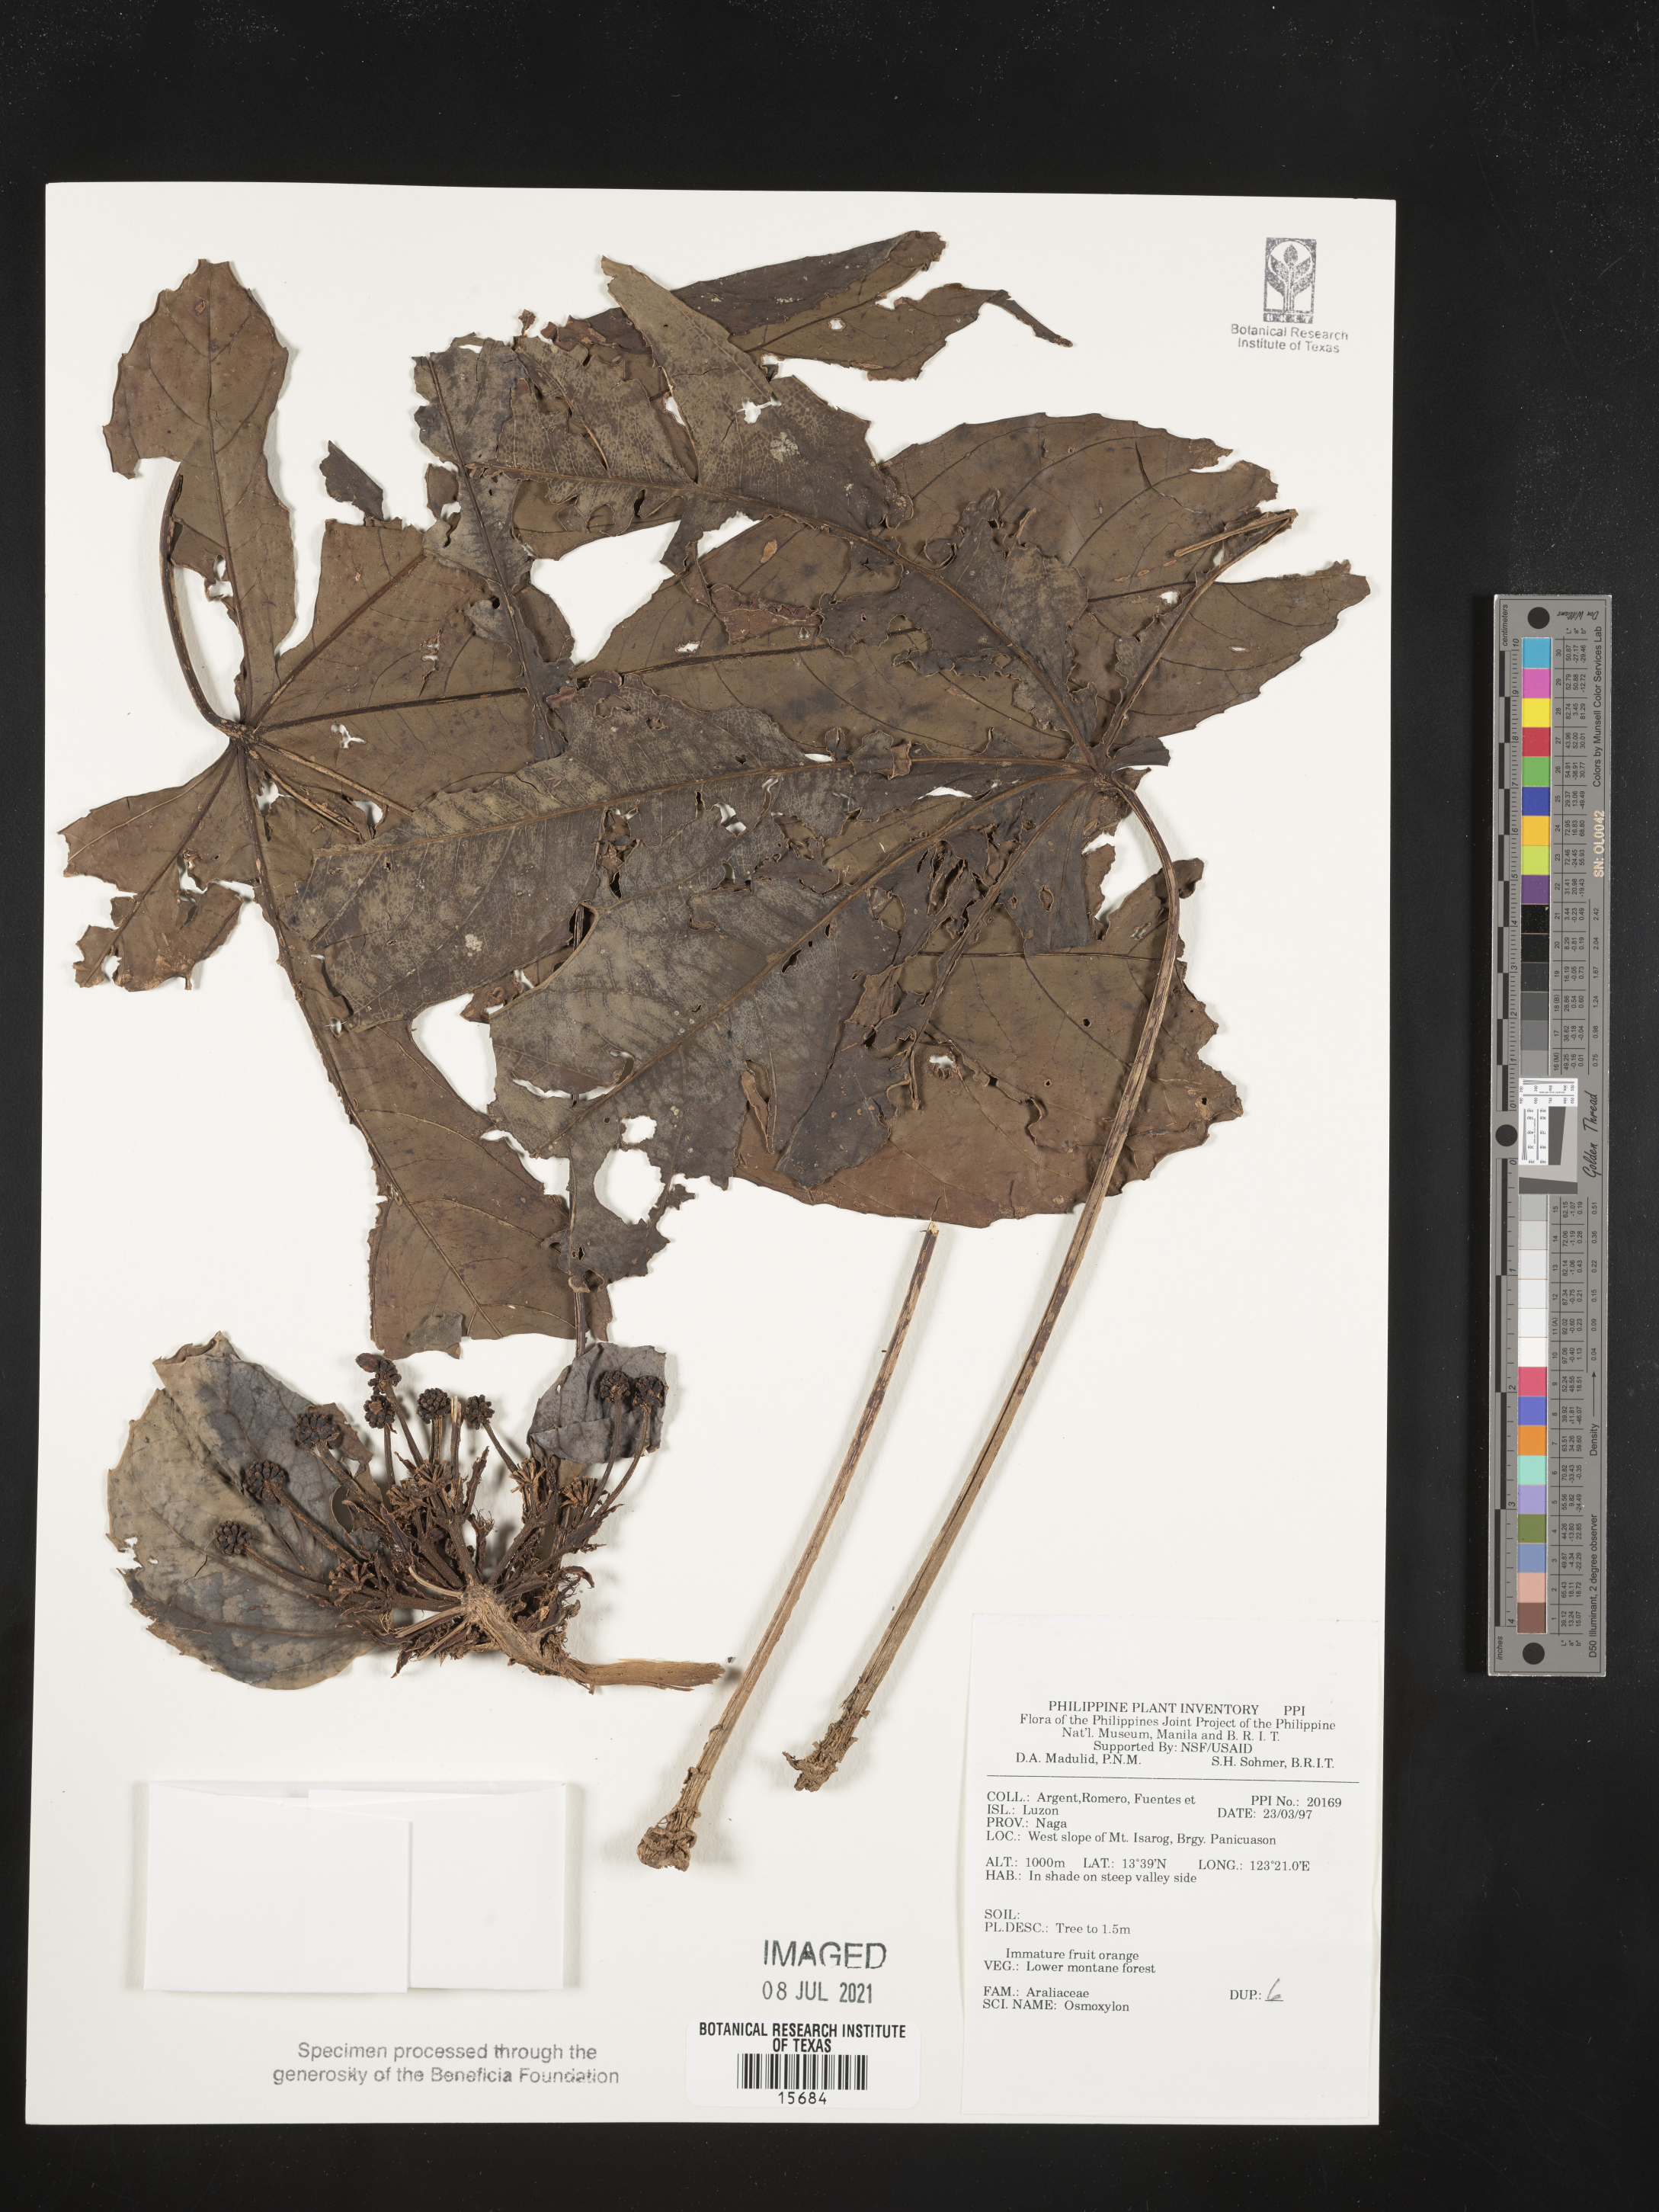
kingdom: Plantae
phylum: Tracheophyta
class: Magnoliopsida
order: Apiales
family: Araliaceae
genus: Osmoxylon
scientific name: Osmoxylon
